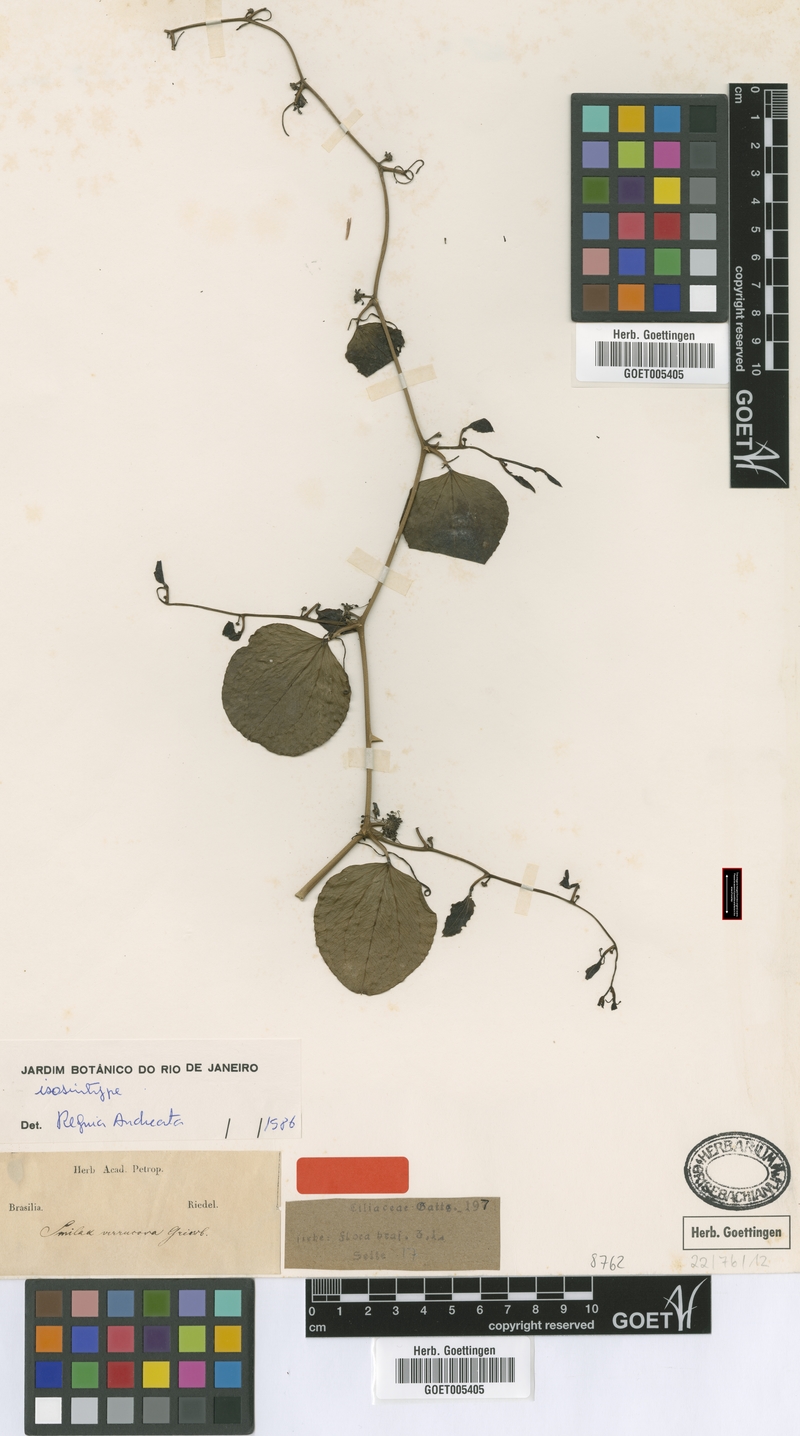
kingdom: Plantae
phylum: Tracheophyta
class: Liliopsida
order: Liliales
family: Smilacaceae
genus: Smilax
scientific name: Smilax verrucosa
